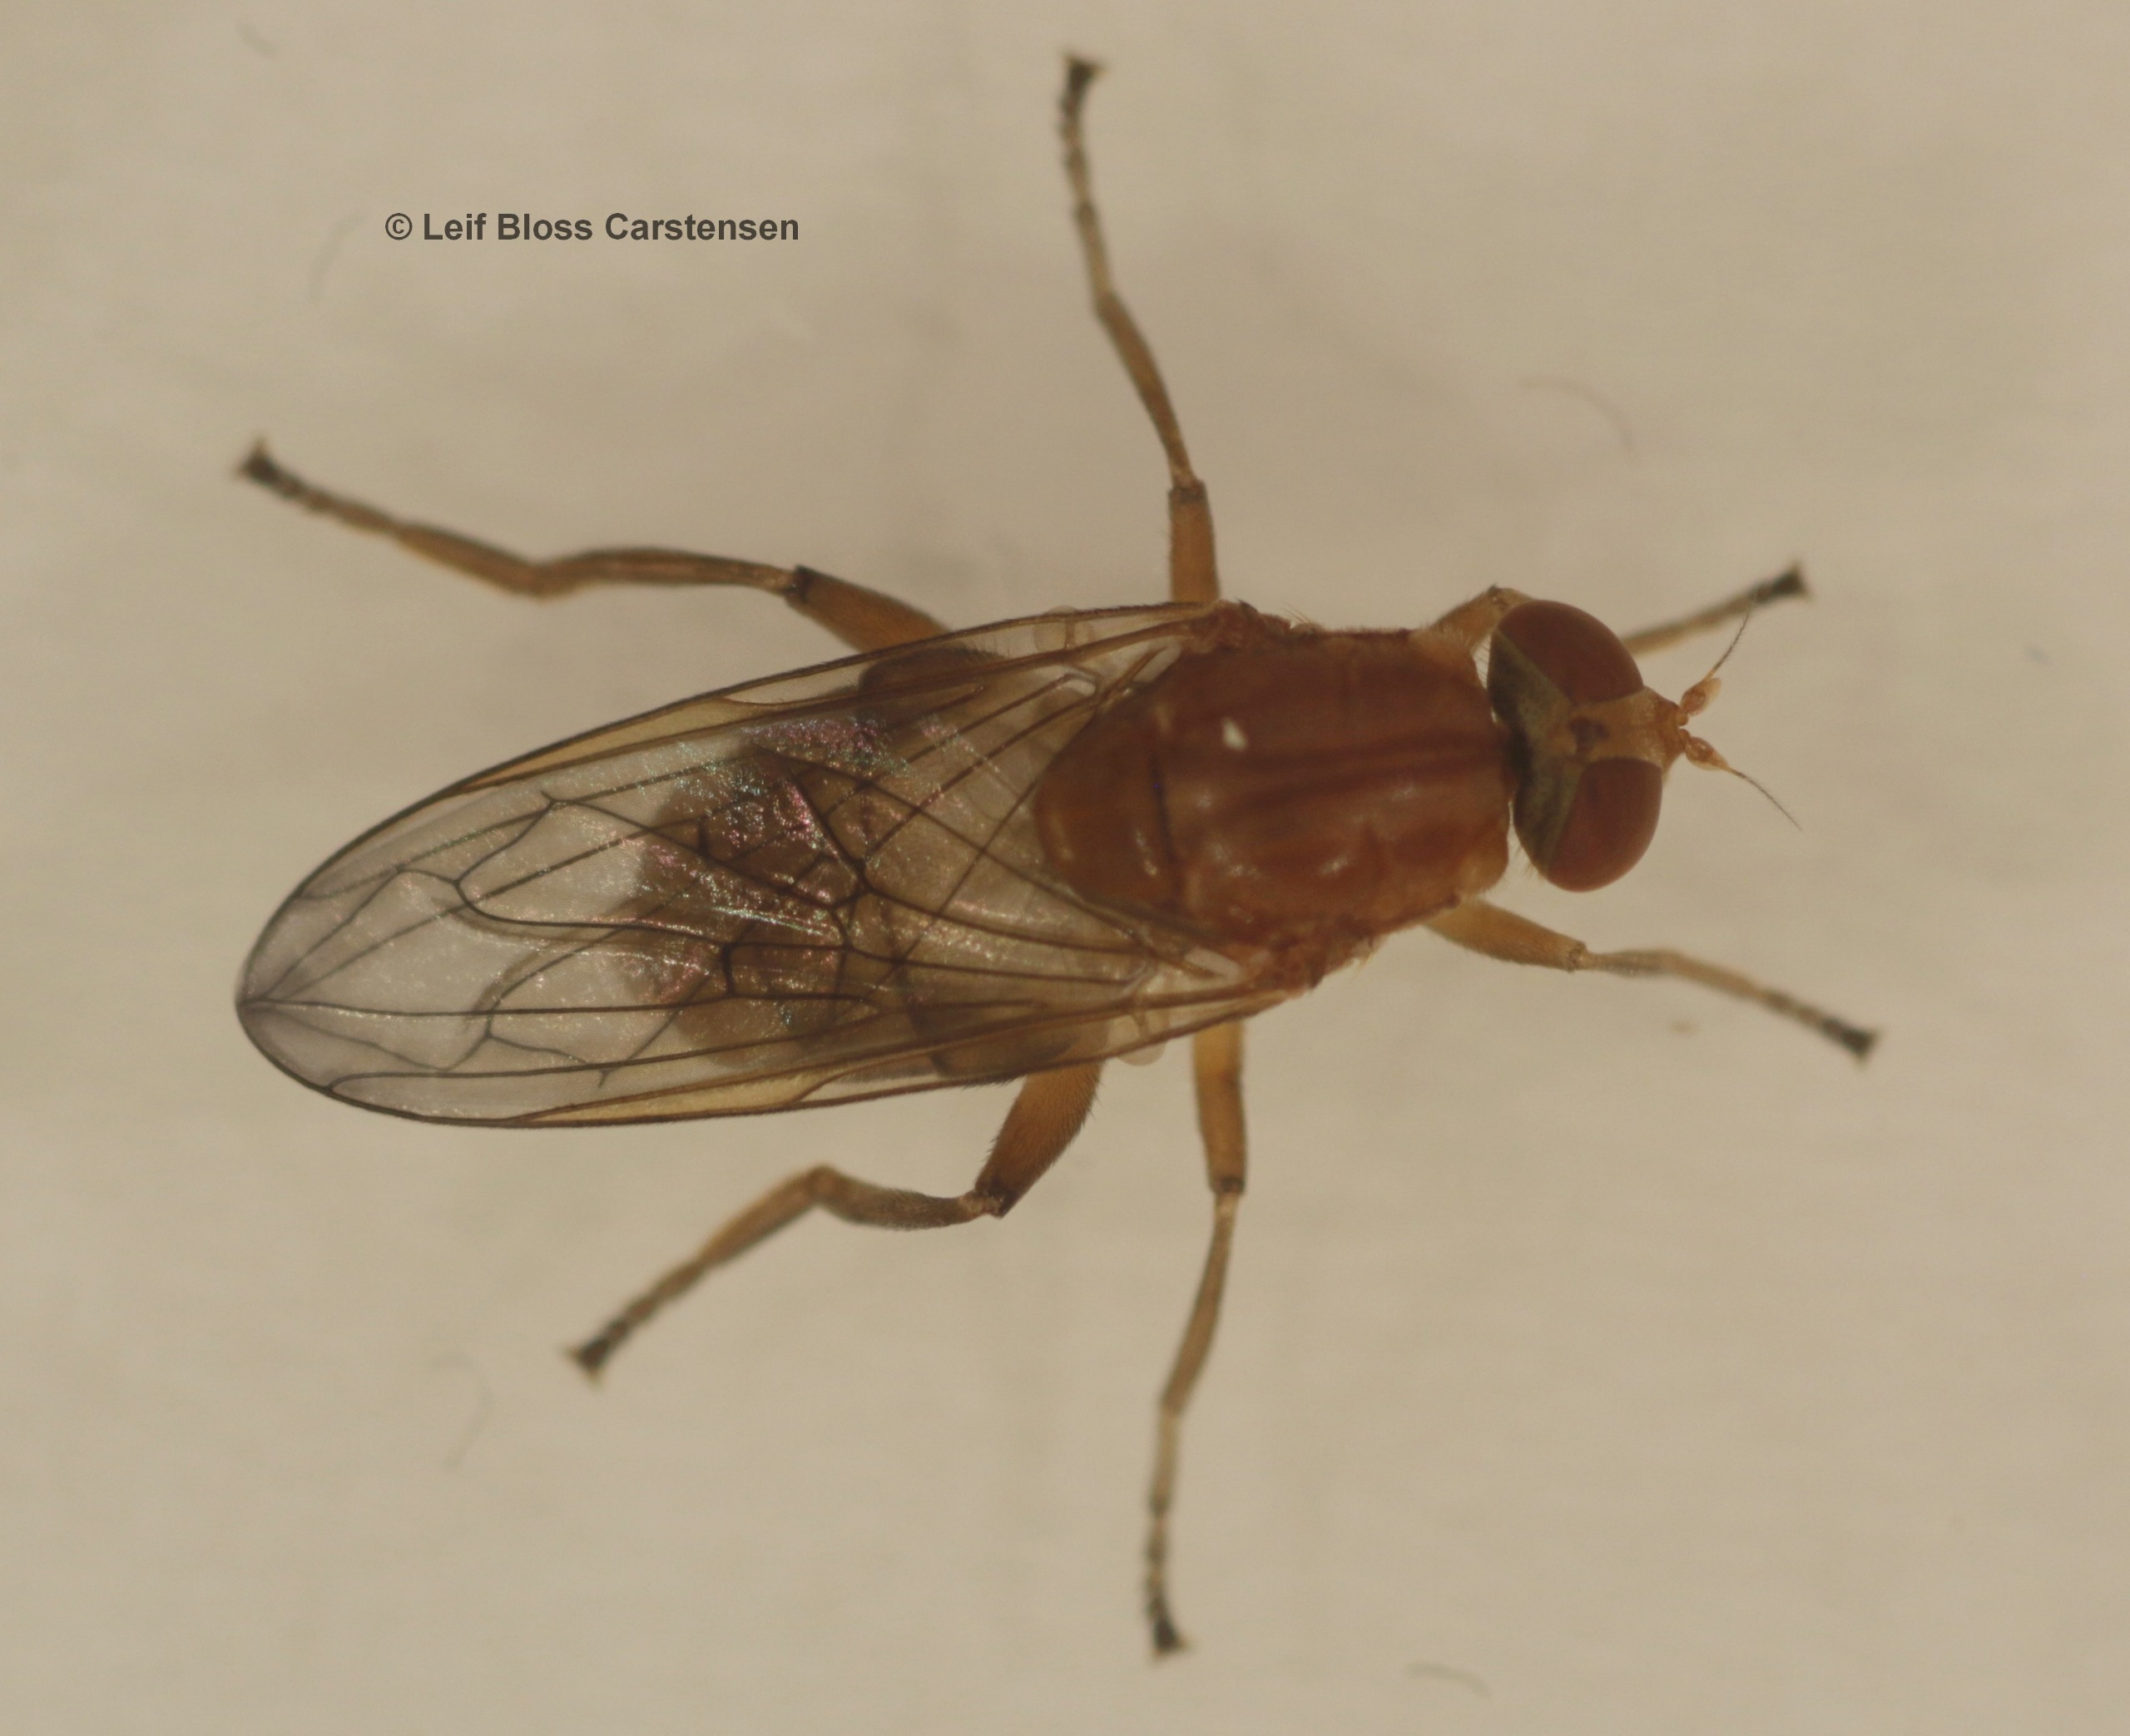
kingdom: Animalia
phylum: Arthropoda
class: Insecta
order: Diptera
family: Syrphidae
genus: Brachyopa
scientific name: Brachyopa testacea
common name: Gran-træsaftsvirreflue
